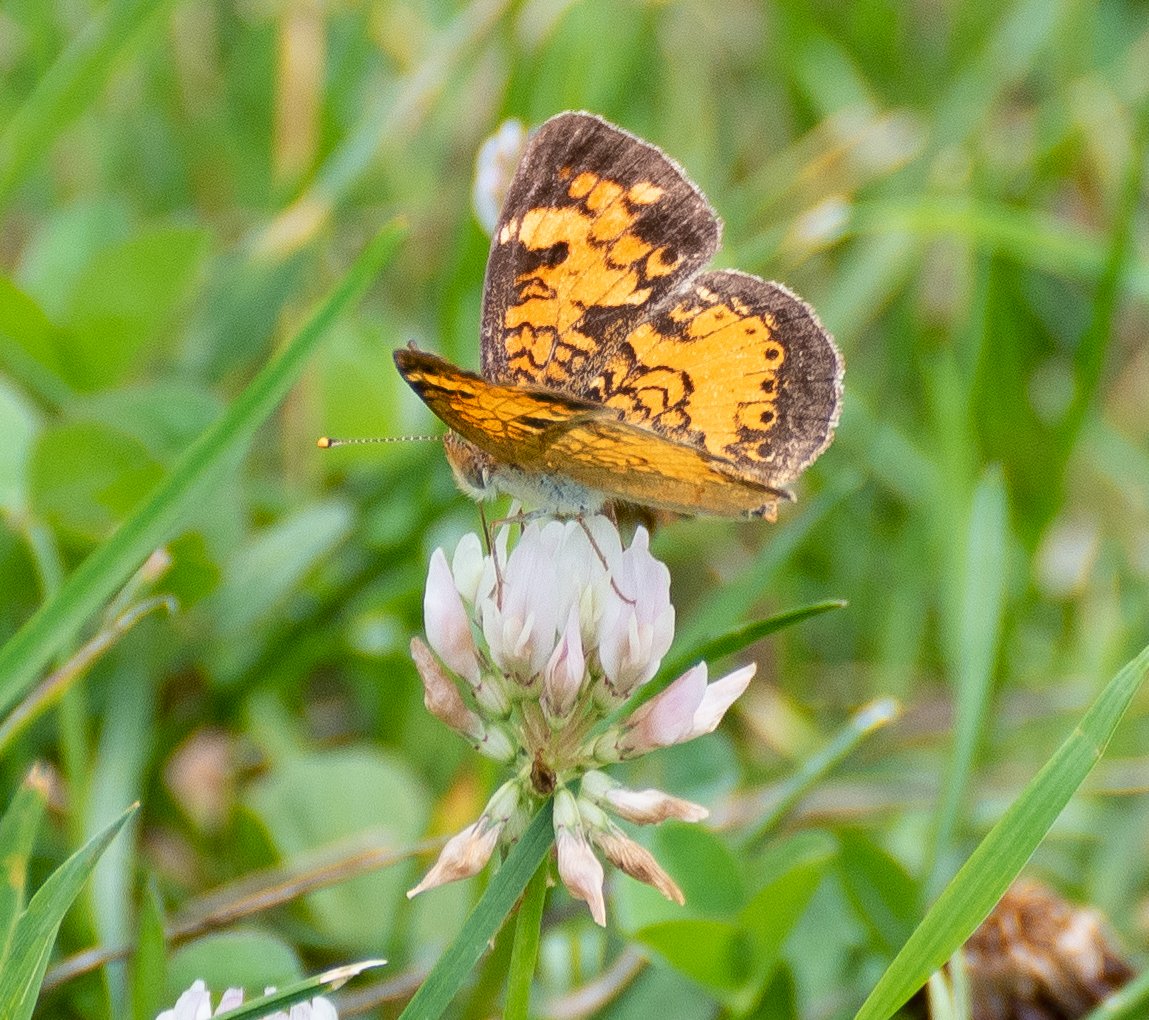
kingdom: Animalia
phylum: Arthropoda
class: Insecta
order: Lepidoptera
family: Nymphalidae
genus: Phyciodes
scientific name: Phyciodes tharos
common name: Northern Crescent
